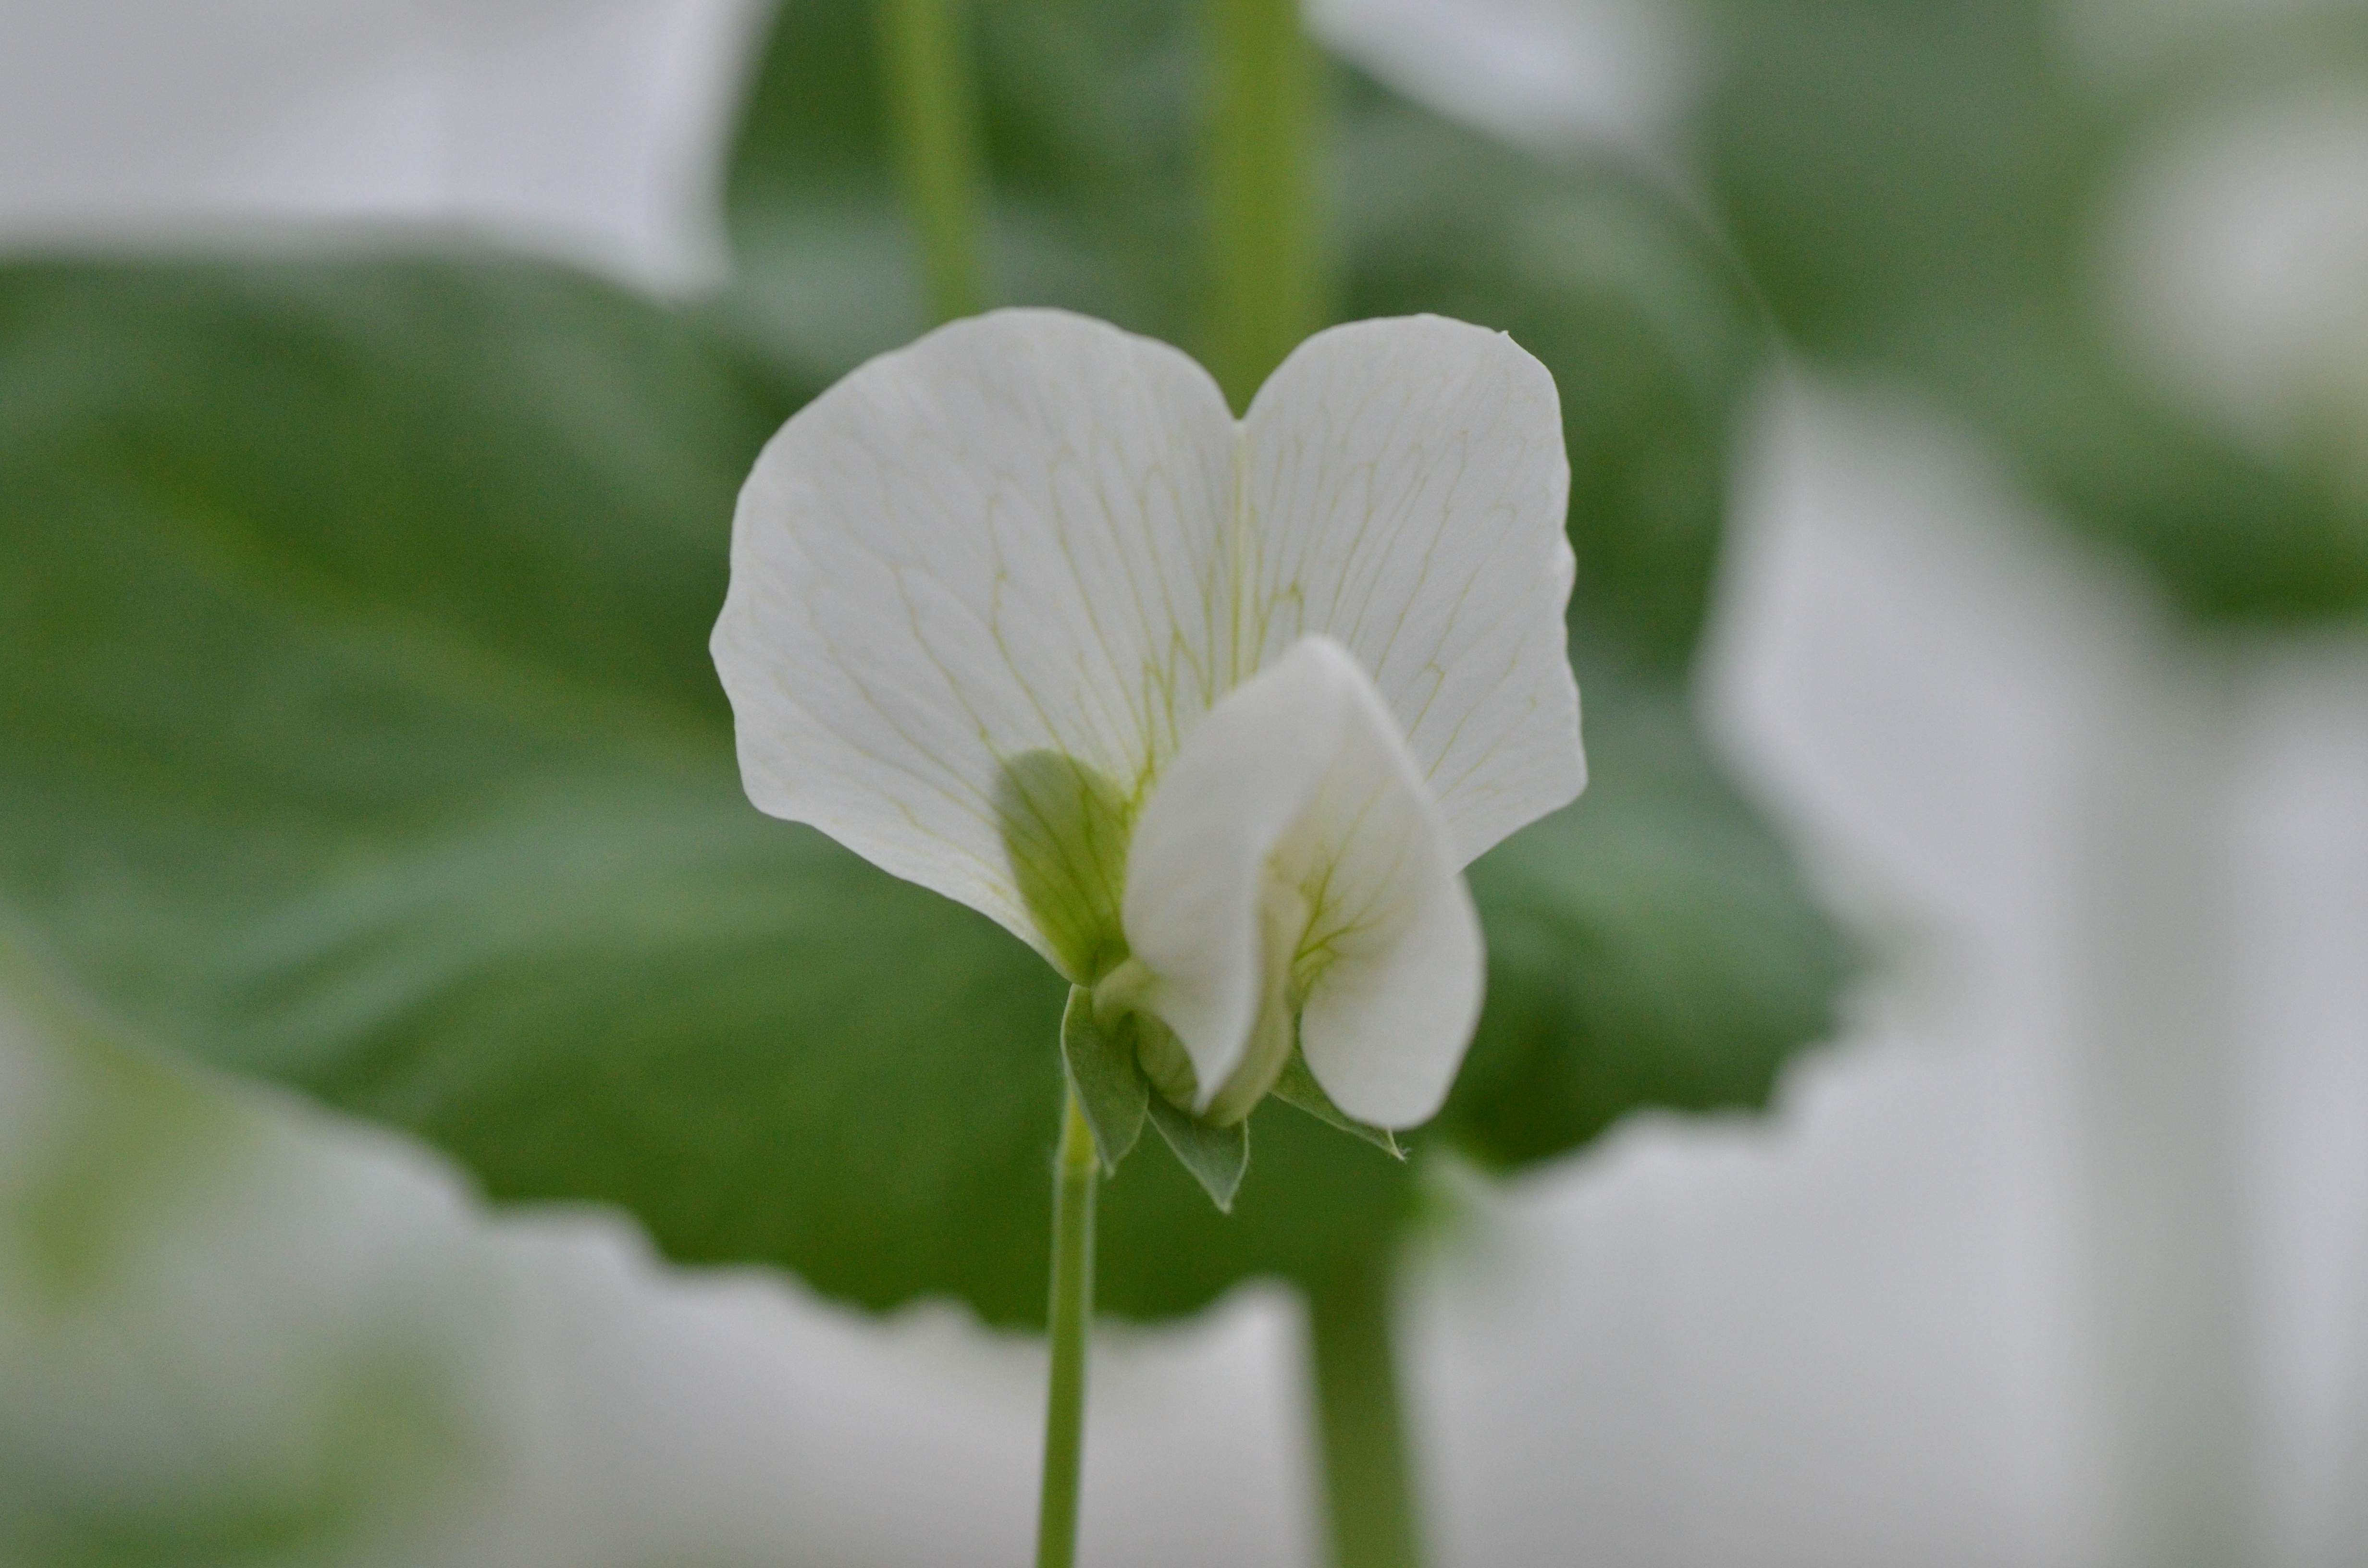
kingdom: Plantae
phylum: Tracheophyta
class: Magnoliopsida
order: Fabales
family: Fabaceae
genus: Lathyrus
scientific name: Lathyrus oleraceus
